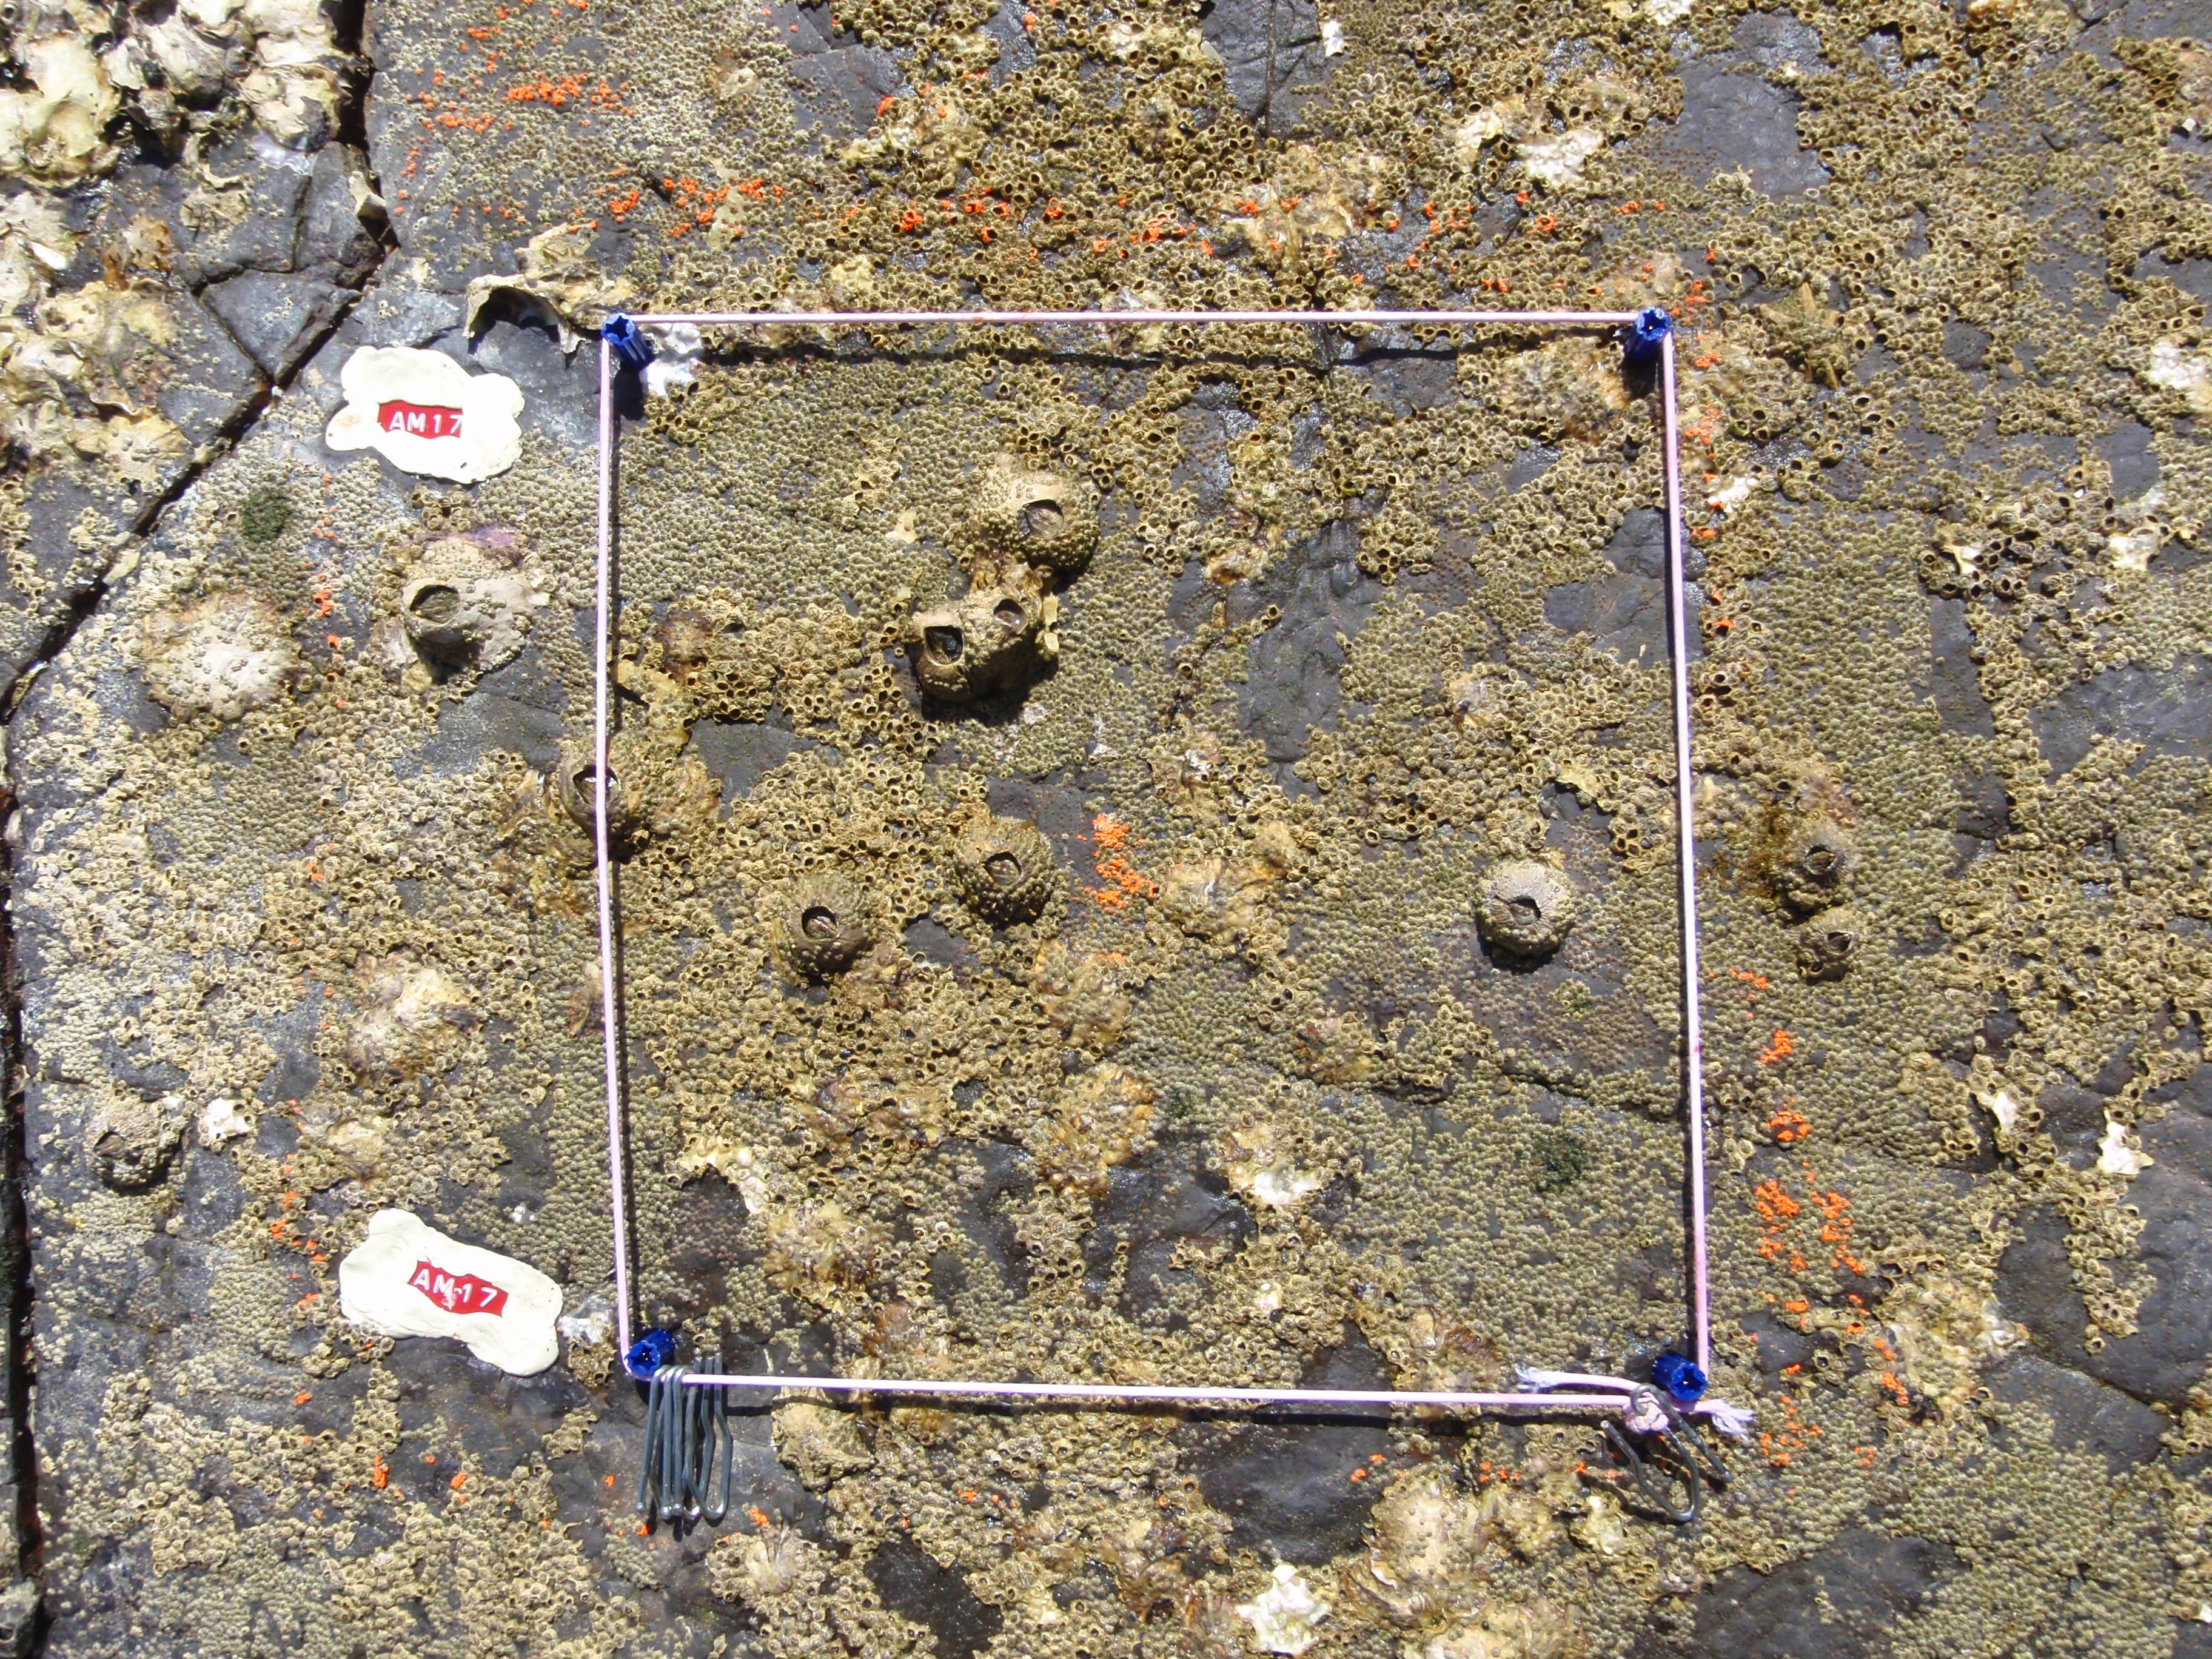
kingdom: Animalia
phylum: Arthropoda
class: Maxillopoda
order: Sessilia
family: Chthamalidae
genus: Chthamalus
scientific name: Chthamalus challengeri
